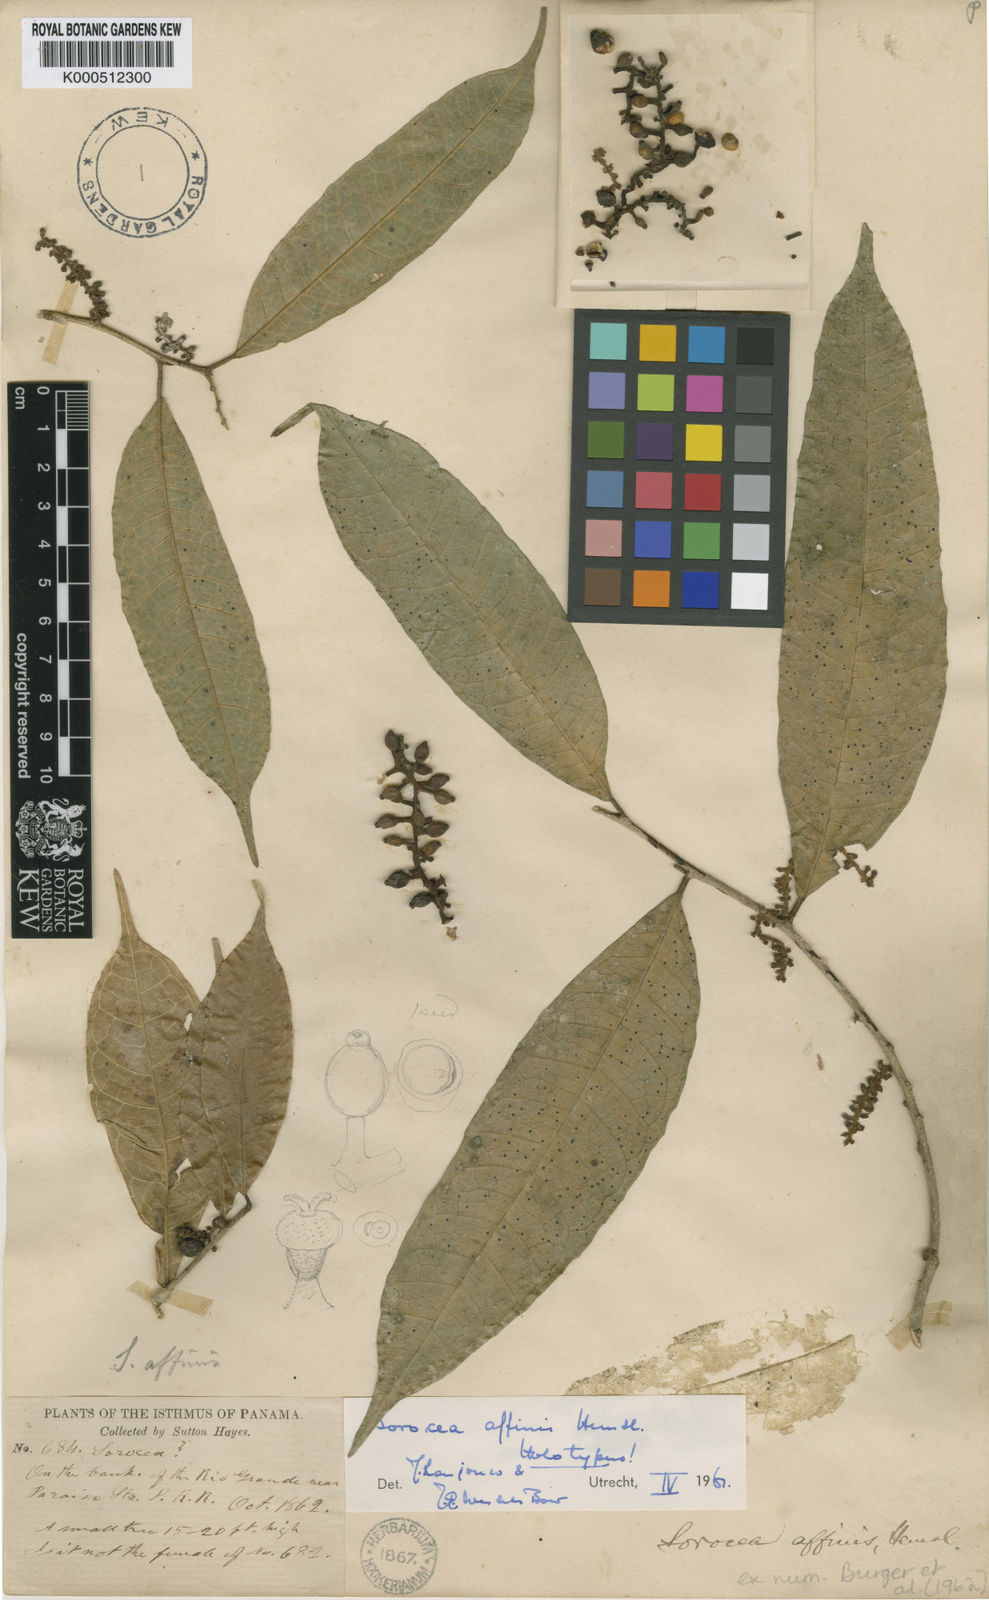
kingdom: Plantae
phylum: Tracheophyta
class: Magnoliopsida
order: Rosales
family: Moraceae
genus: Sorocea
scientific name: Sorocea affinis
